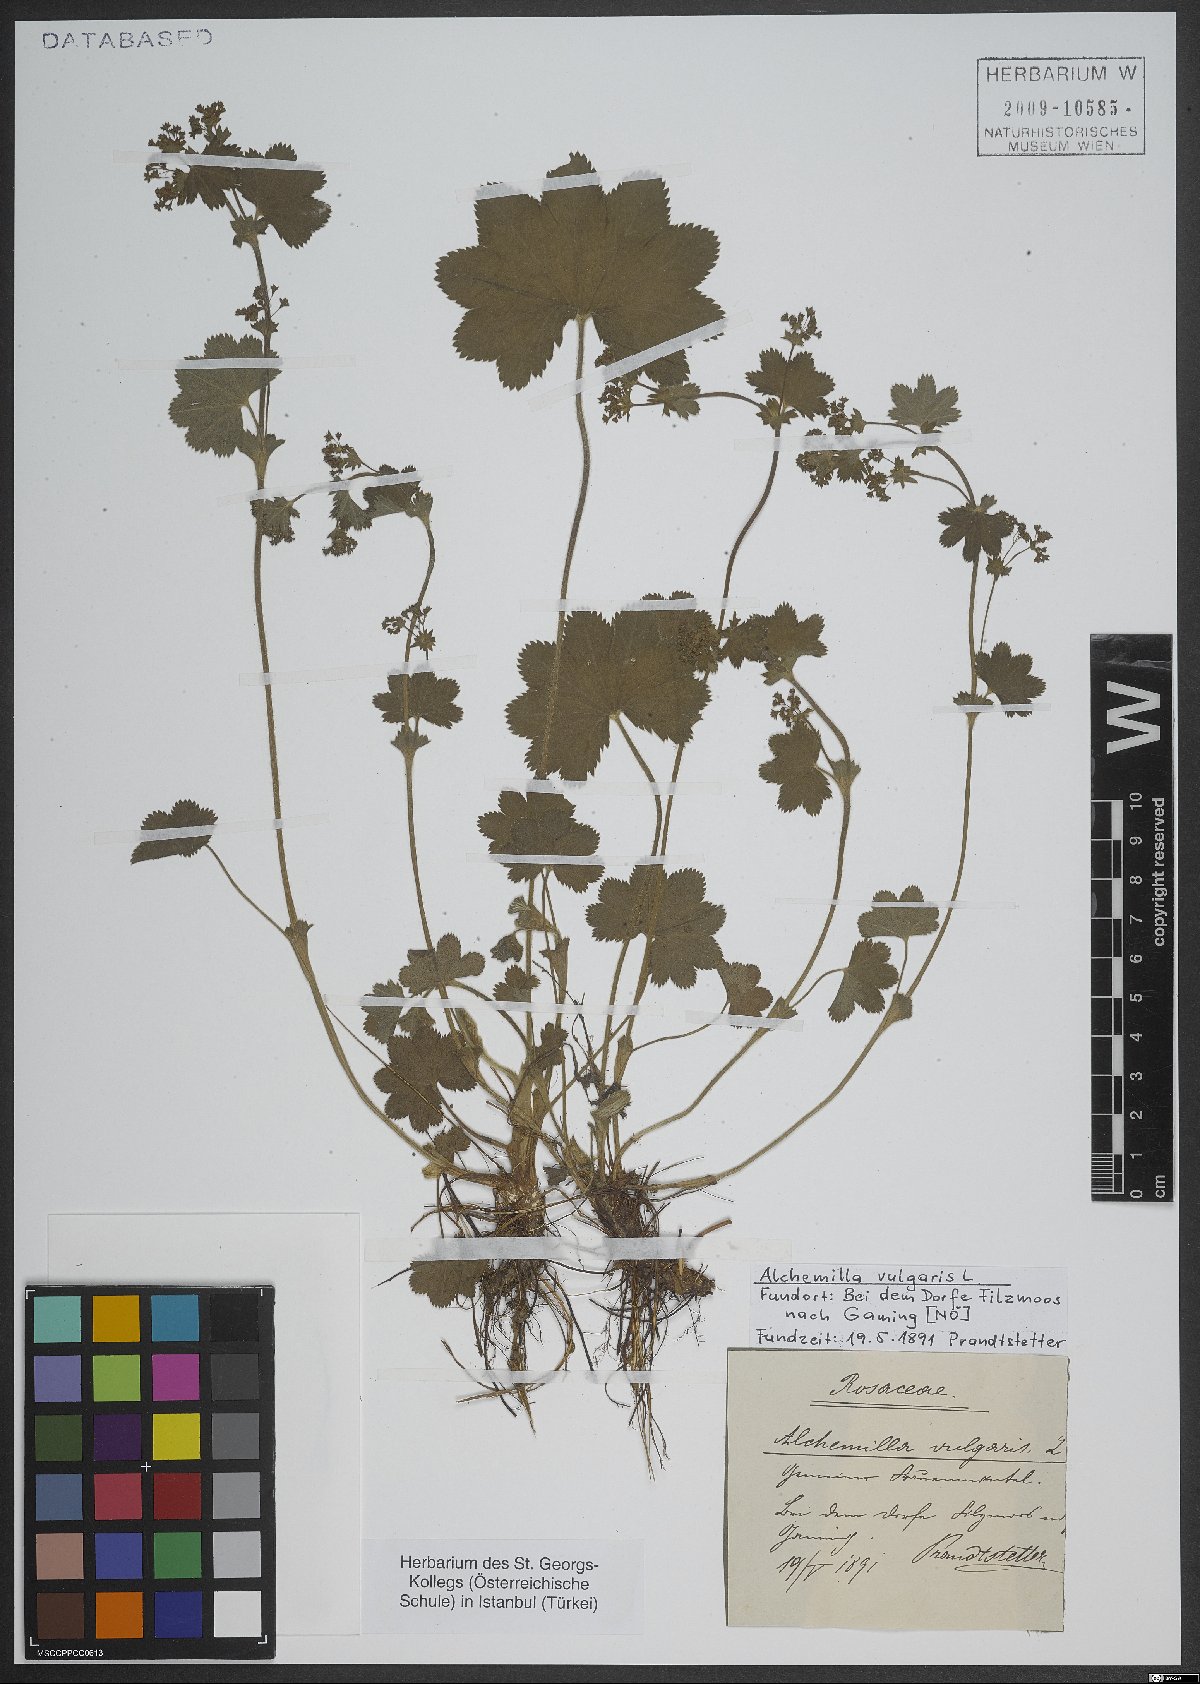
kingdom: Plantae
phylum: Tracheophyta
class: Magnoliopsida
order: Caryophyllales
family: Caryophyllaceae
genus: Silene
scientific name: Silene vulgaris
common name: Bladder campion
